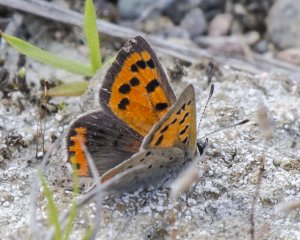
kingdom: Animalia
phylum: Arthropoda
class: Insecta
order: Lepidoptera
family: Lycaenidae
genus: Lycaena
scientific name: Lycaena phlaeas
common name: American Copper
